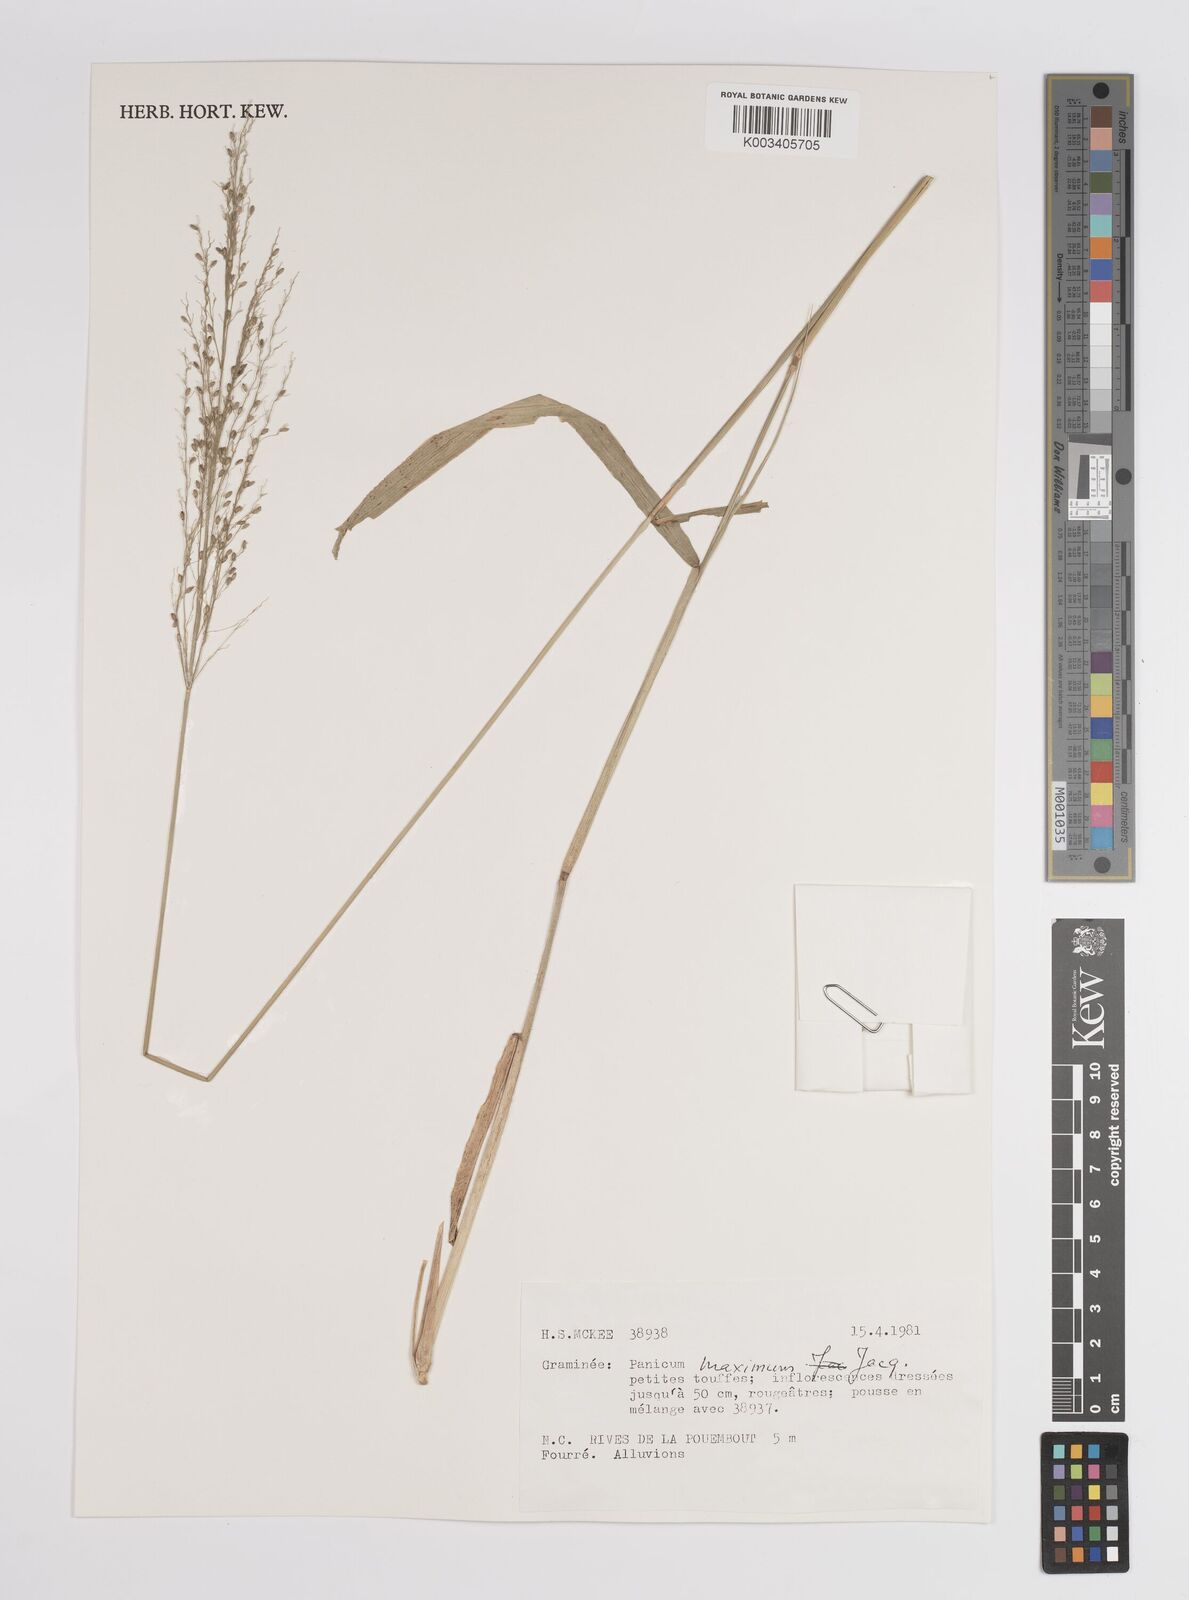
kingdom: Plantae
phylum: Tracheophyta
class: Liliopsida
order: Poales
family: Poaceae
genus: Megathyrsus
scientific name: Megathyrsus maximus
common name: Guineagrass
